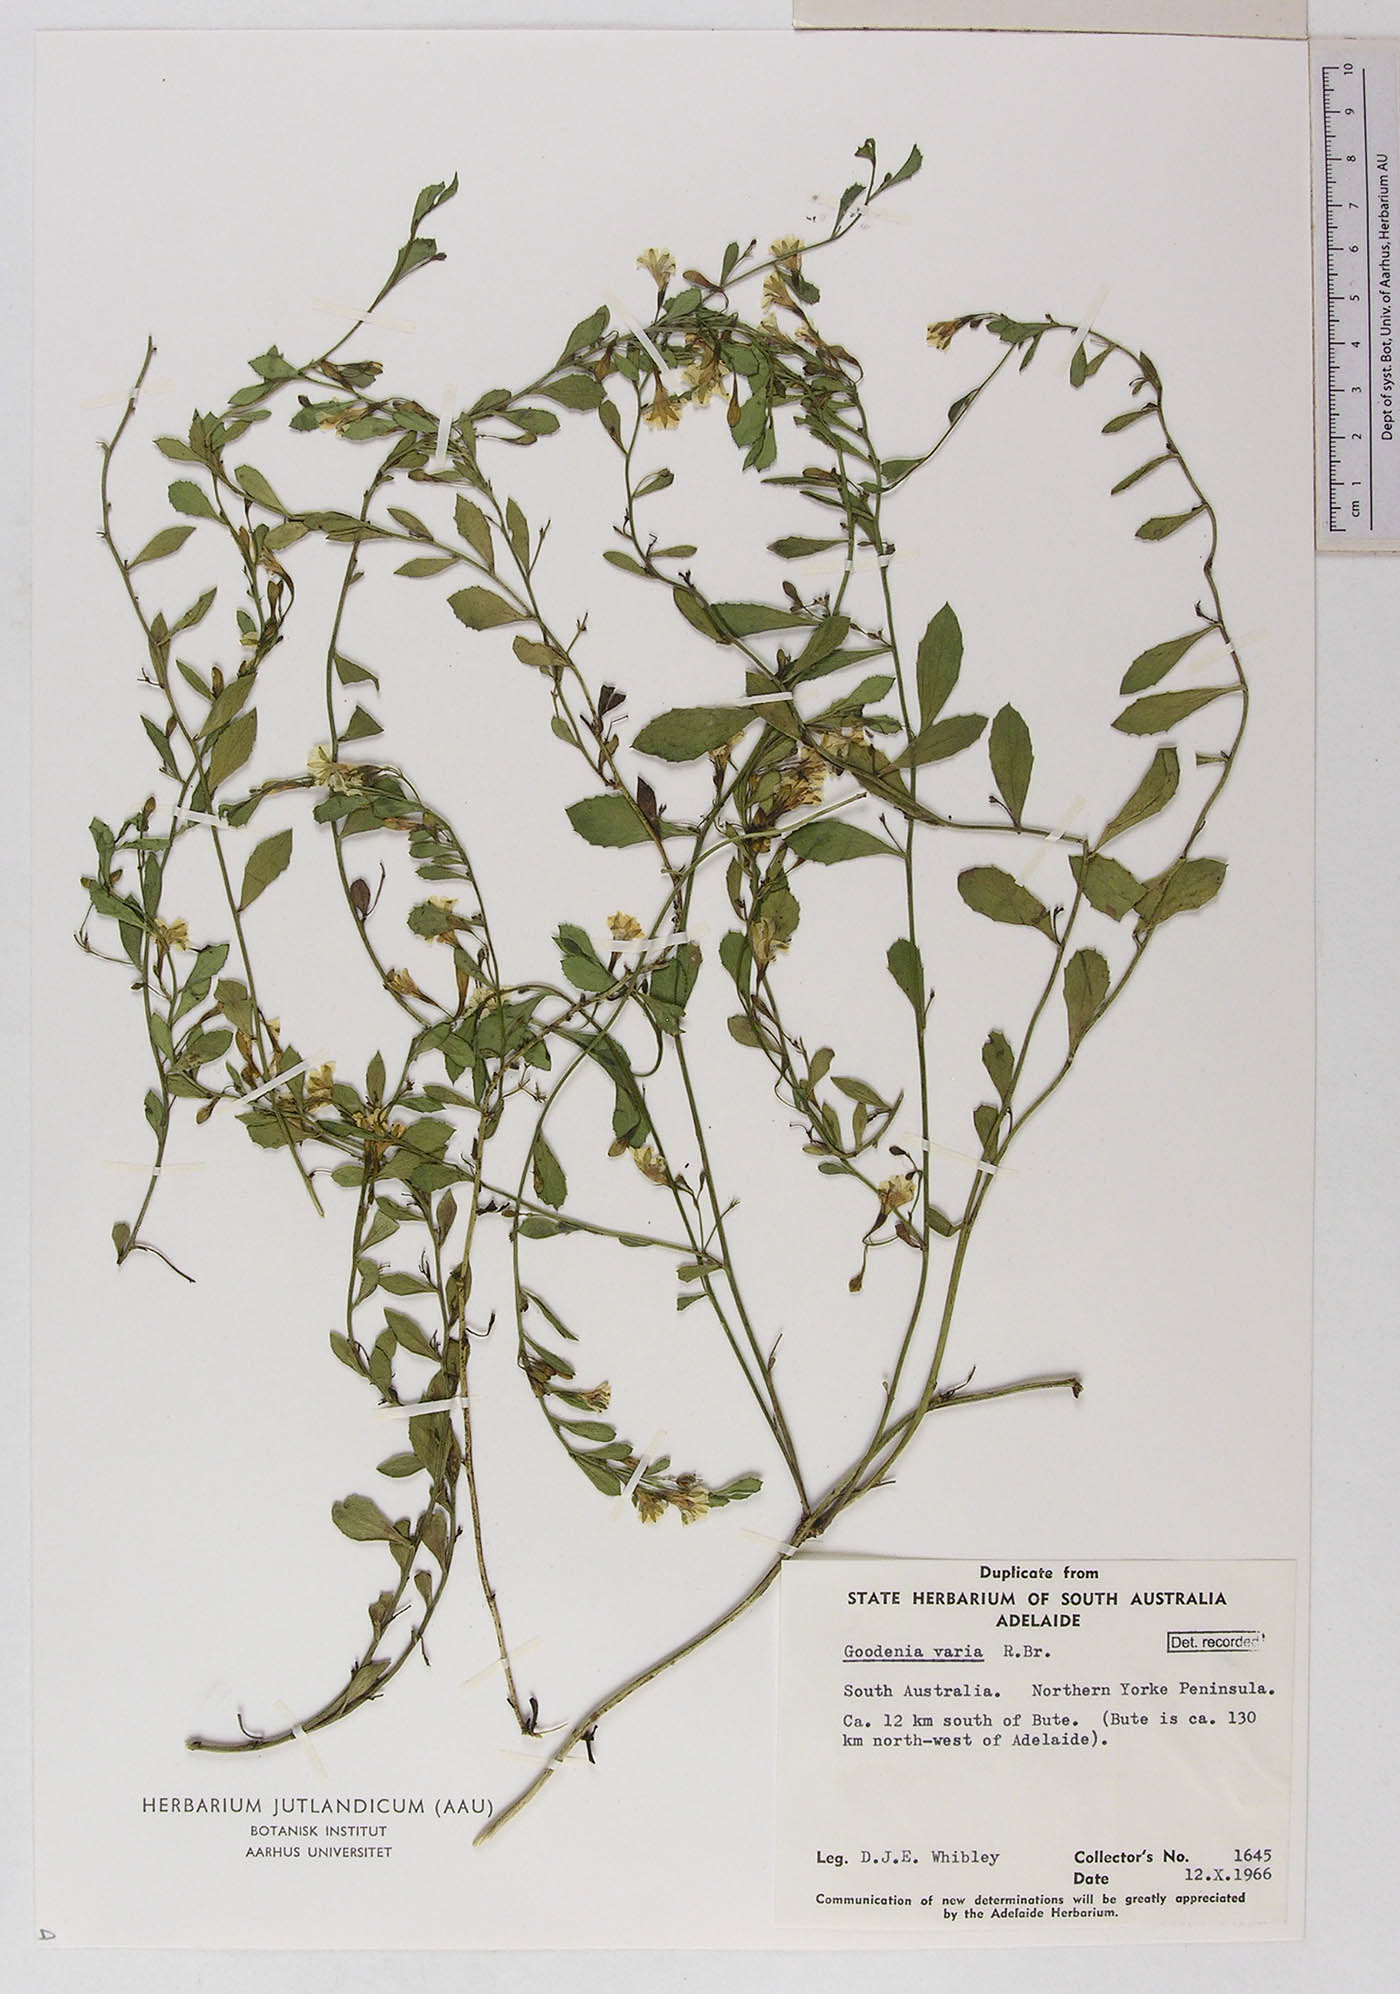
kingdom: Plantae
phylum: Tracheophyta
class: Magnoliopsida
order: Asterales
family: Goodeniaceae
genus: Goodenia
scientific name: Goodenia varia
